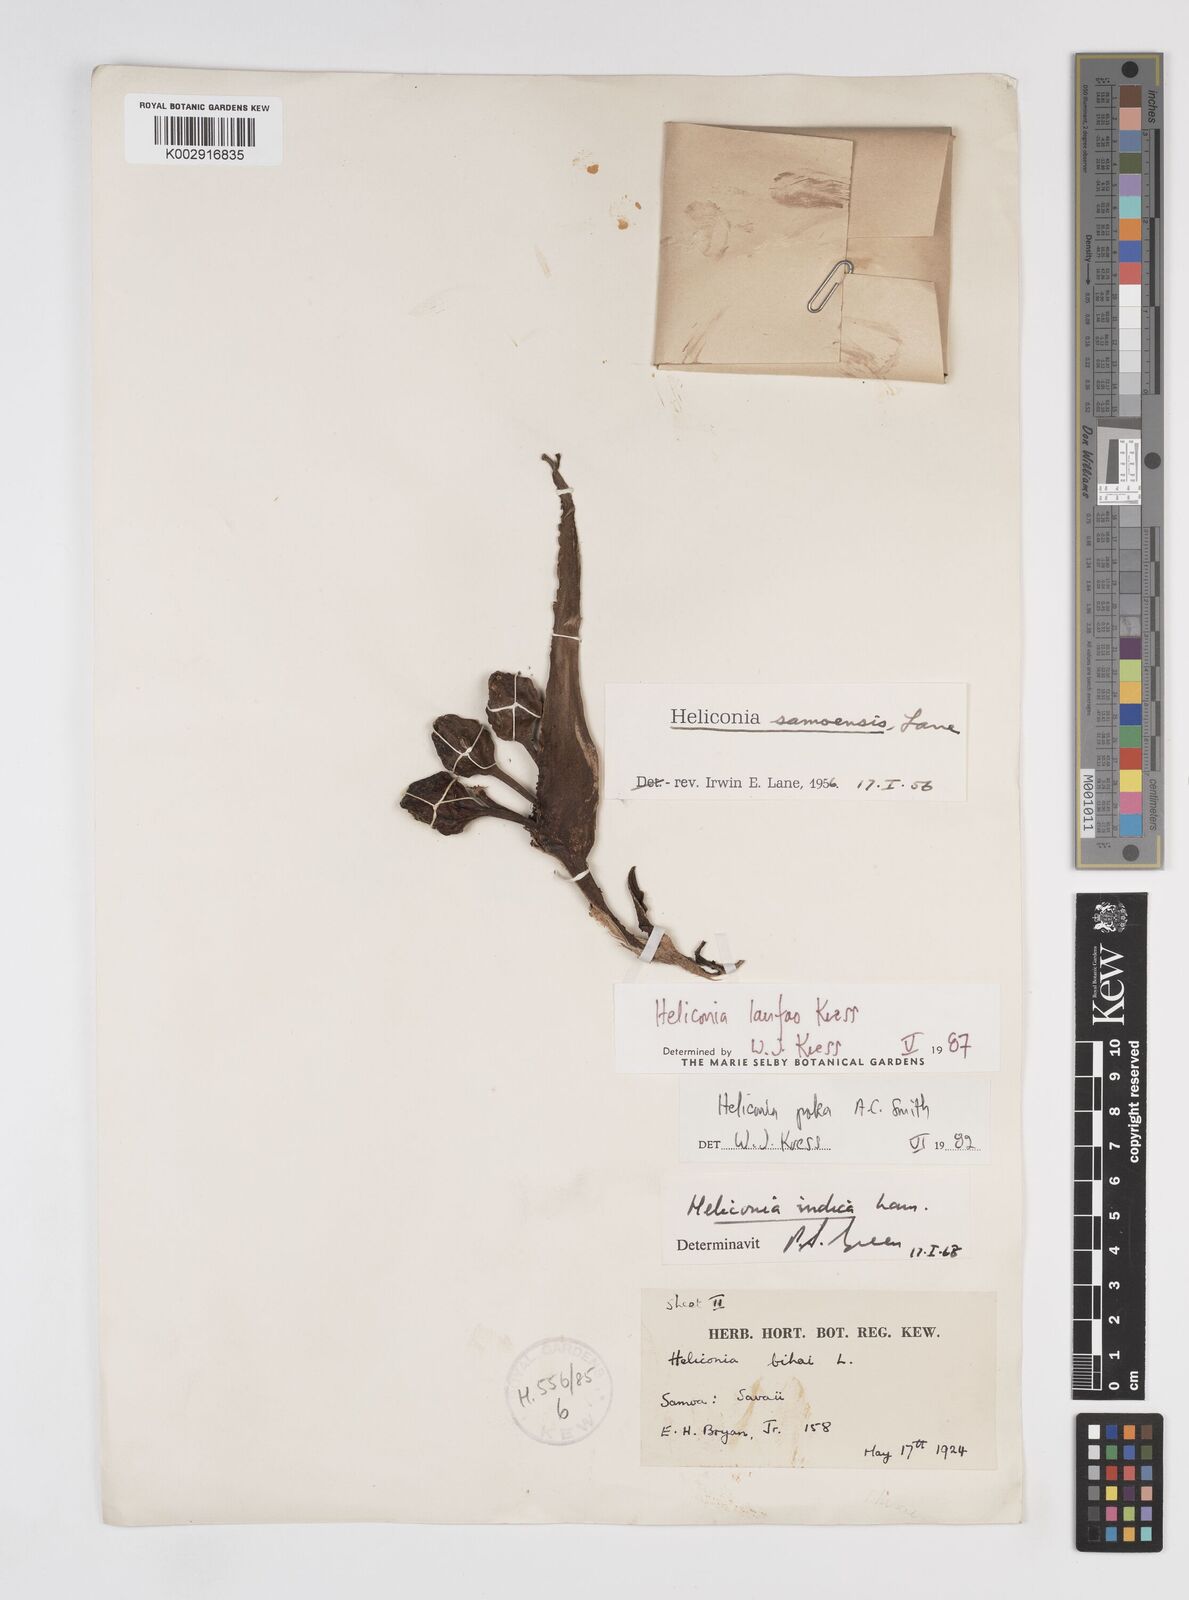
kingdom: Plantae
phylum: Tracheophyta
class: Liliopsida
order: Zingiberales
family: Heliconiaceae
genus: Heliconia
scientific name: Heliconia laufao
